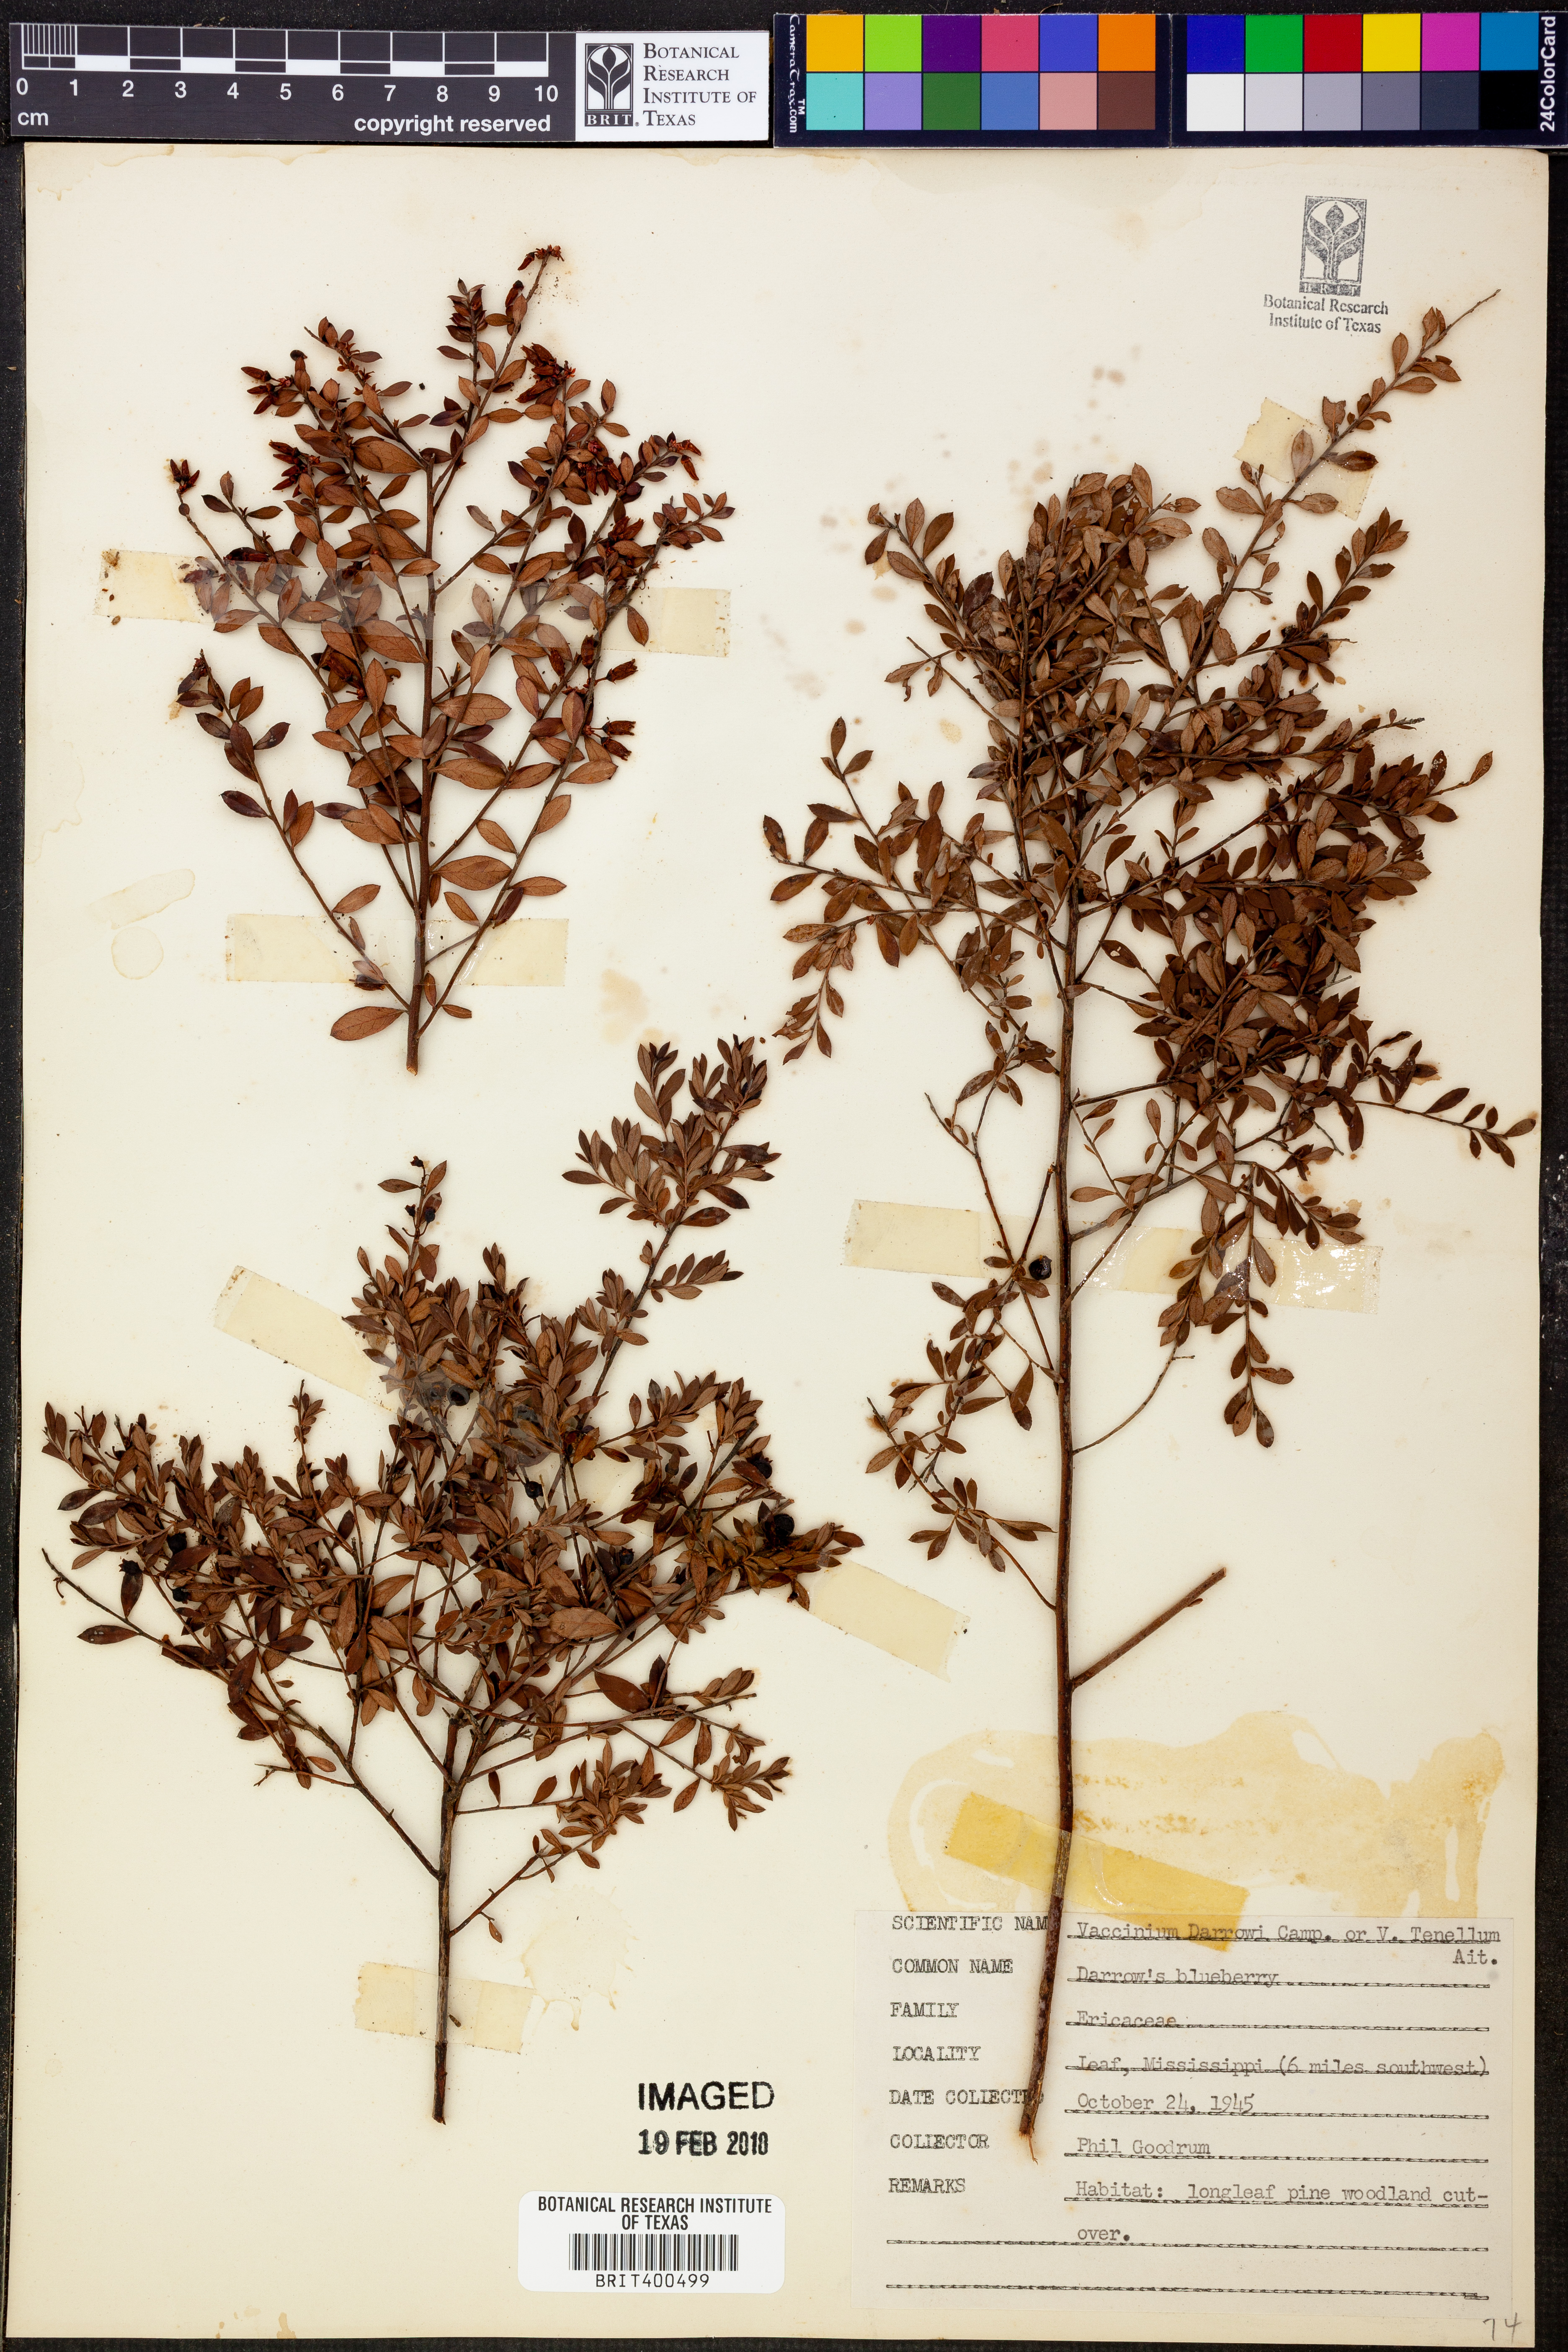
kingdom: Plantae
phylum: Tracheophyta
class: Magnoliopsida
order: Ericales
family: Ericaceae
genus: Vaccinium
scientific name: Vaccinium darrowii
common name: Darrow's blueberry
